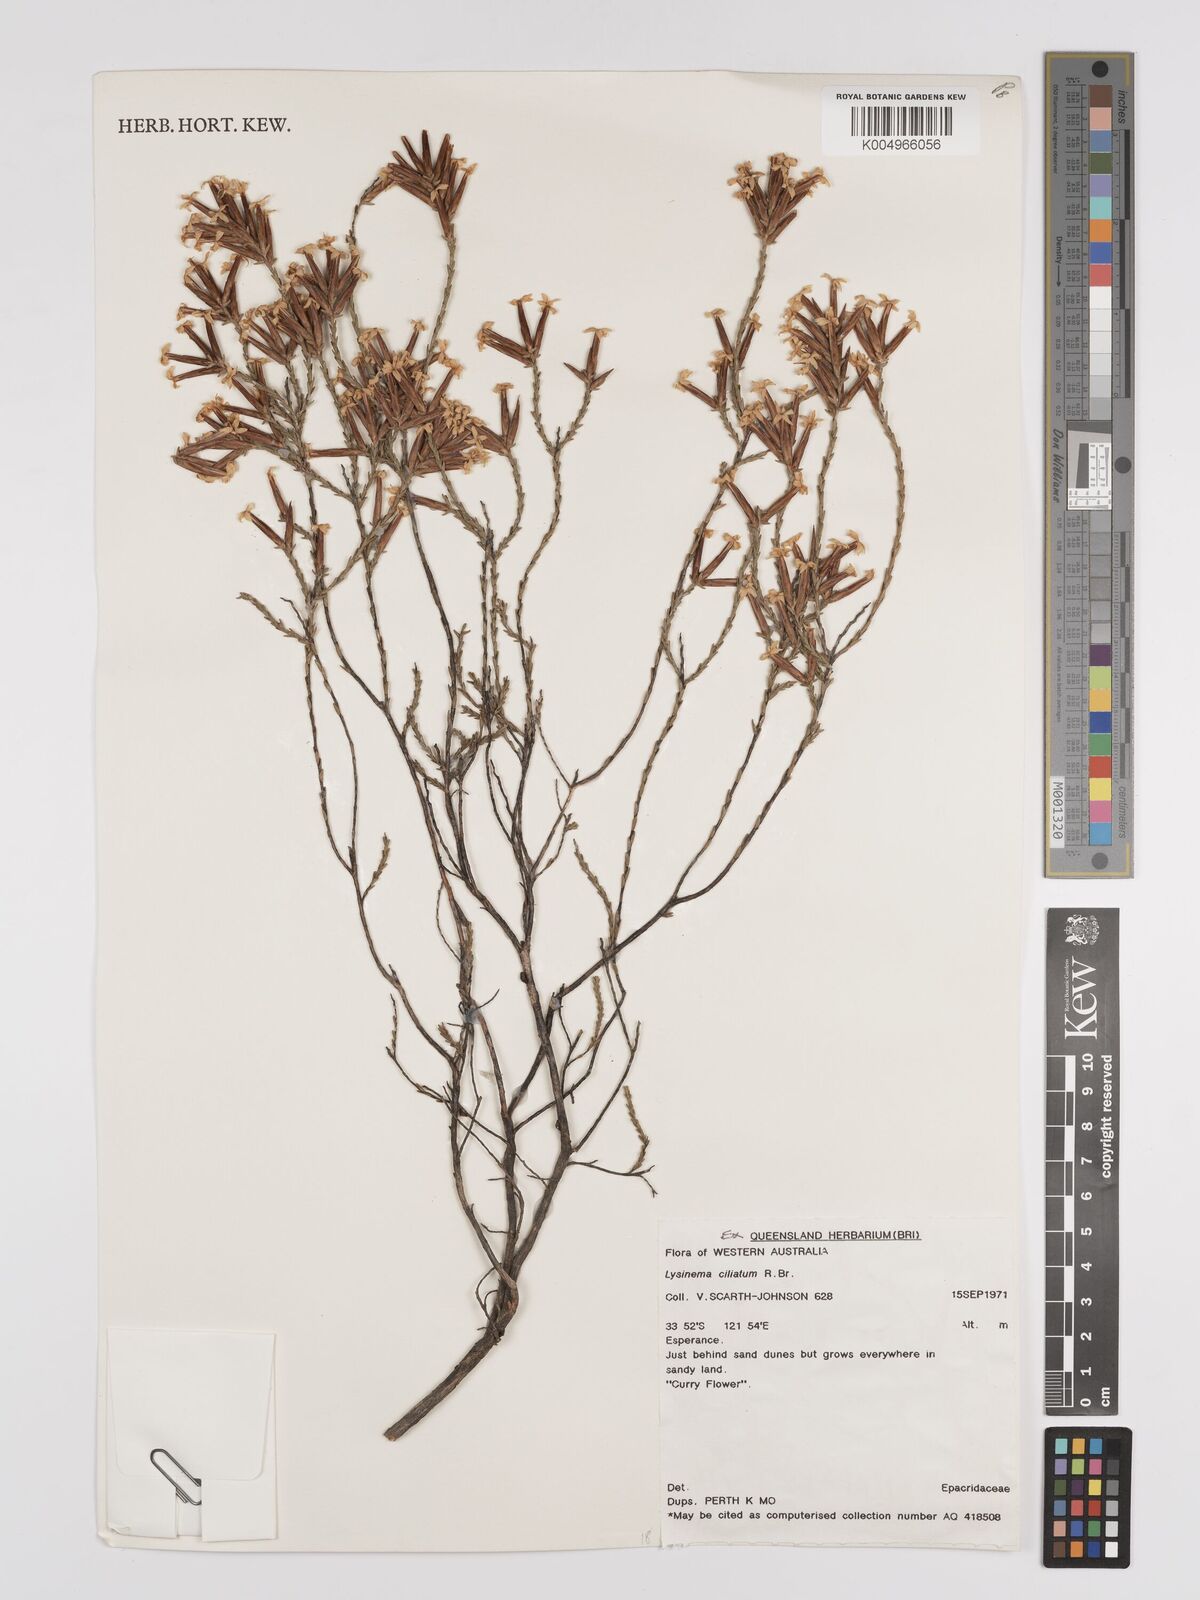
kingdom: Plantae
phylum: Tracheophyta
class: Magnoliopsida
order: Ericales
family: Ericaceae
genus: Lysinema
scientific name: Lysinema ciliatum
